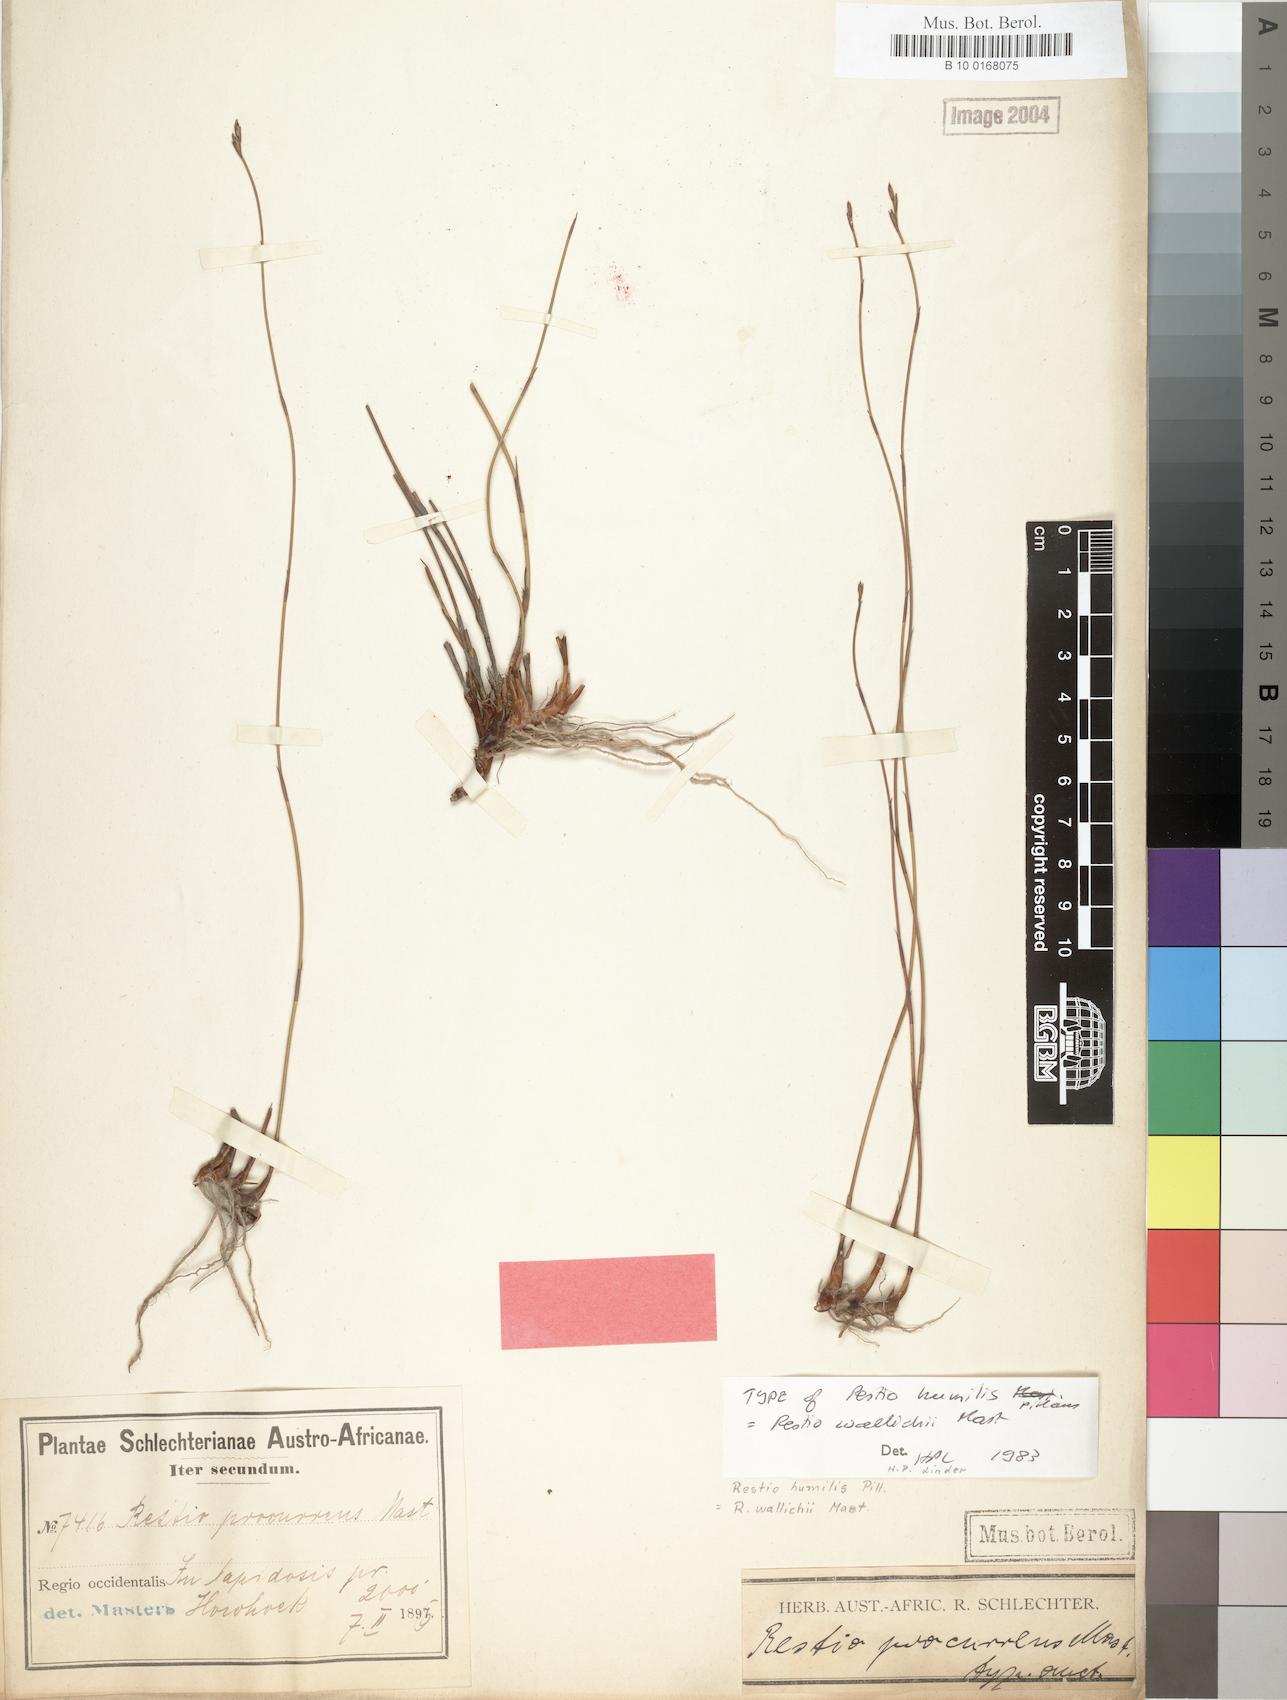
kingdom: Plantae
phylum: Tracheophyta
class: Liliopsida
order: Poales
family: Restionaceae
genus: Restio
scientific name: Restio wallichii
